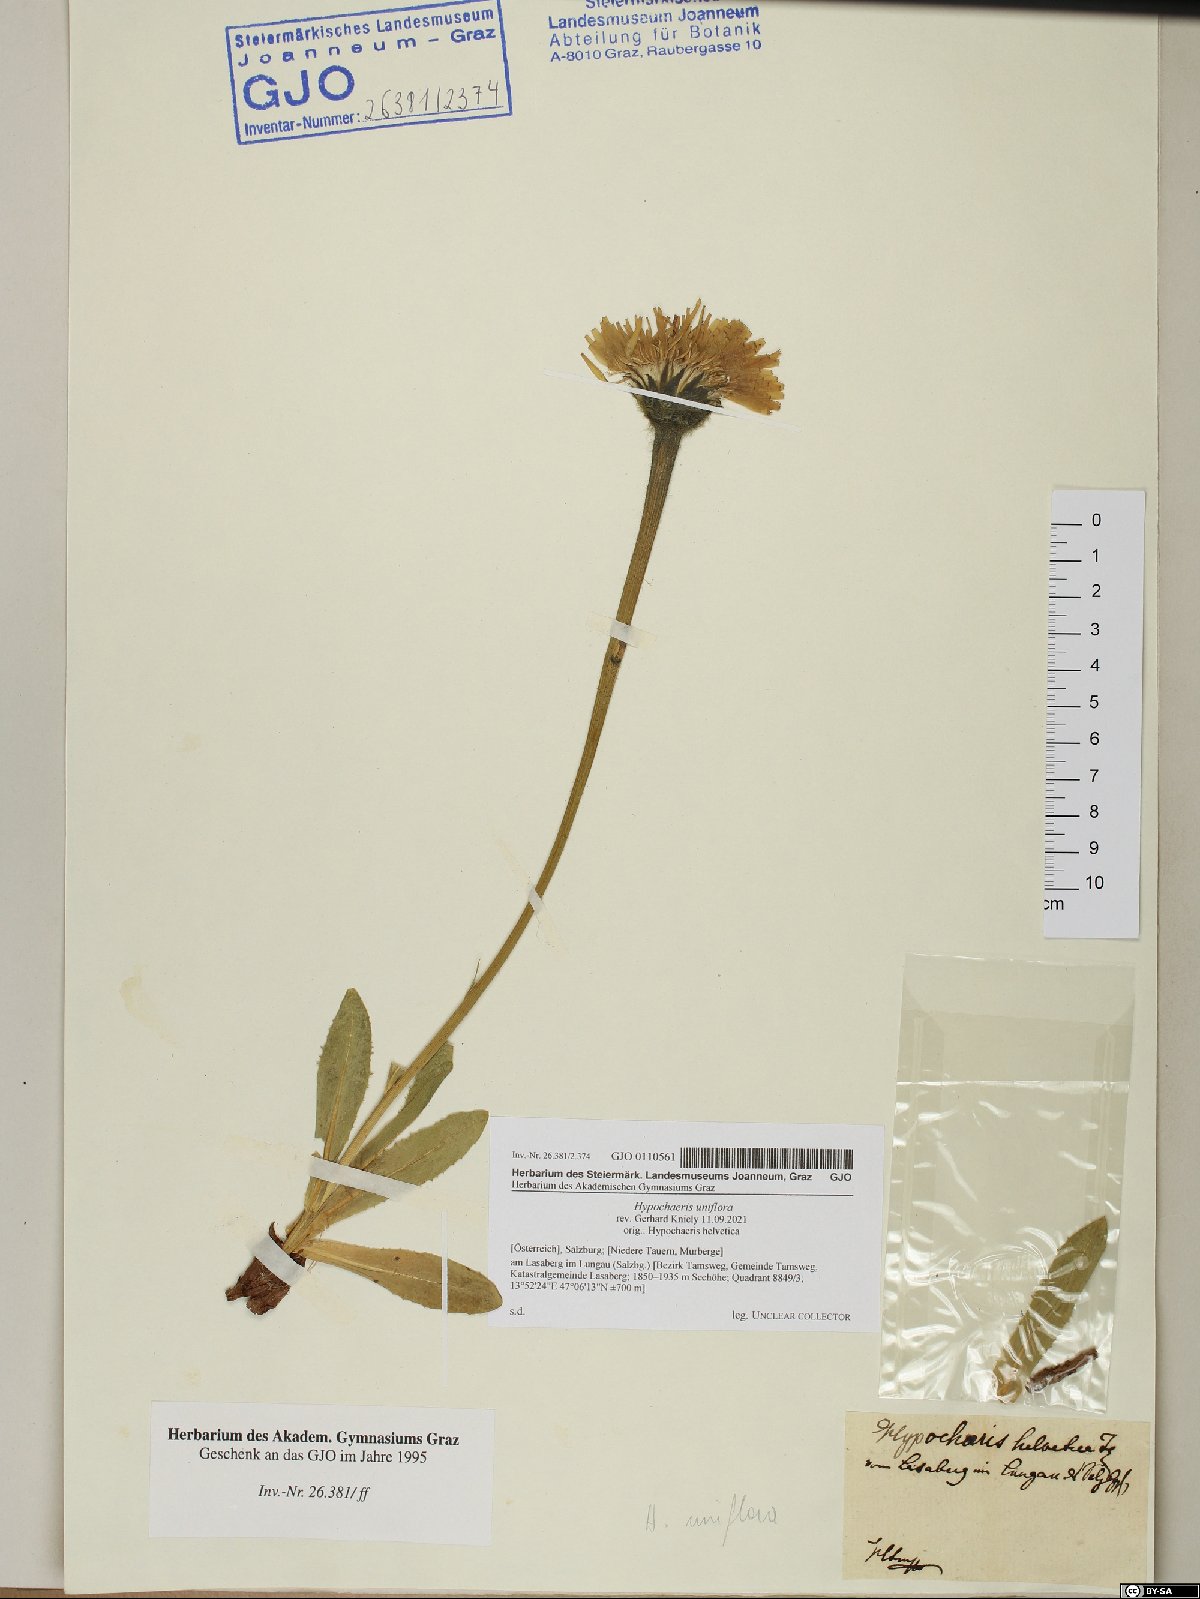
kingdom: Plantae
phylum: Tracheophyta
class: Magnoliopsida
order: Asterales
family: Asteraceae
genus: Trommsdorffia
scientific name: Trommsdorffia uniflora
